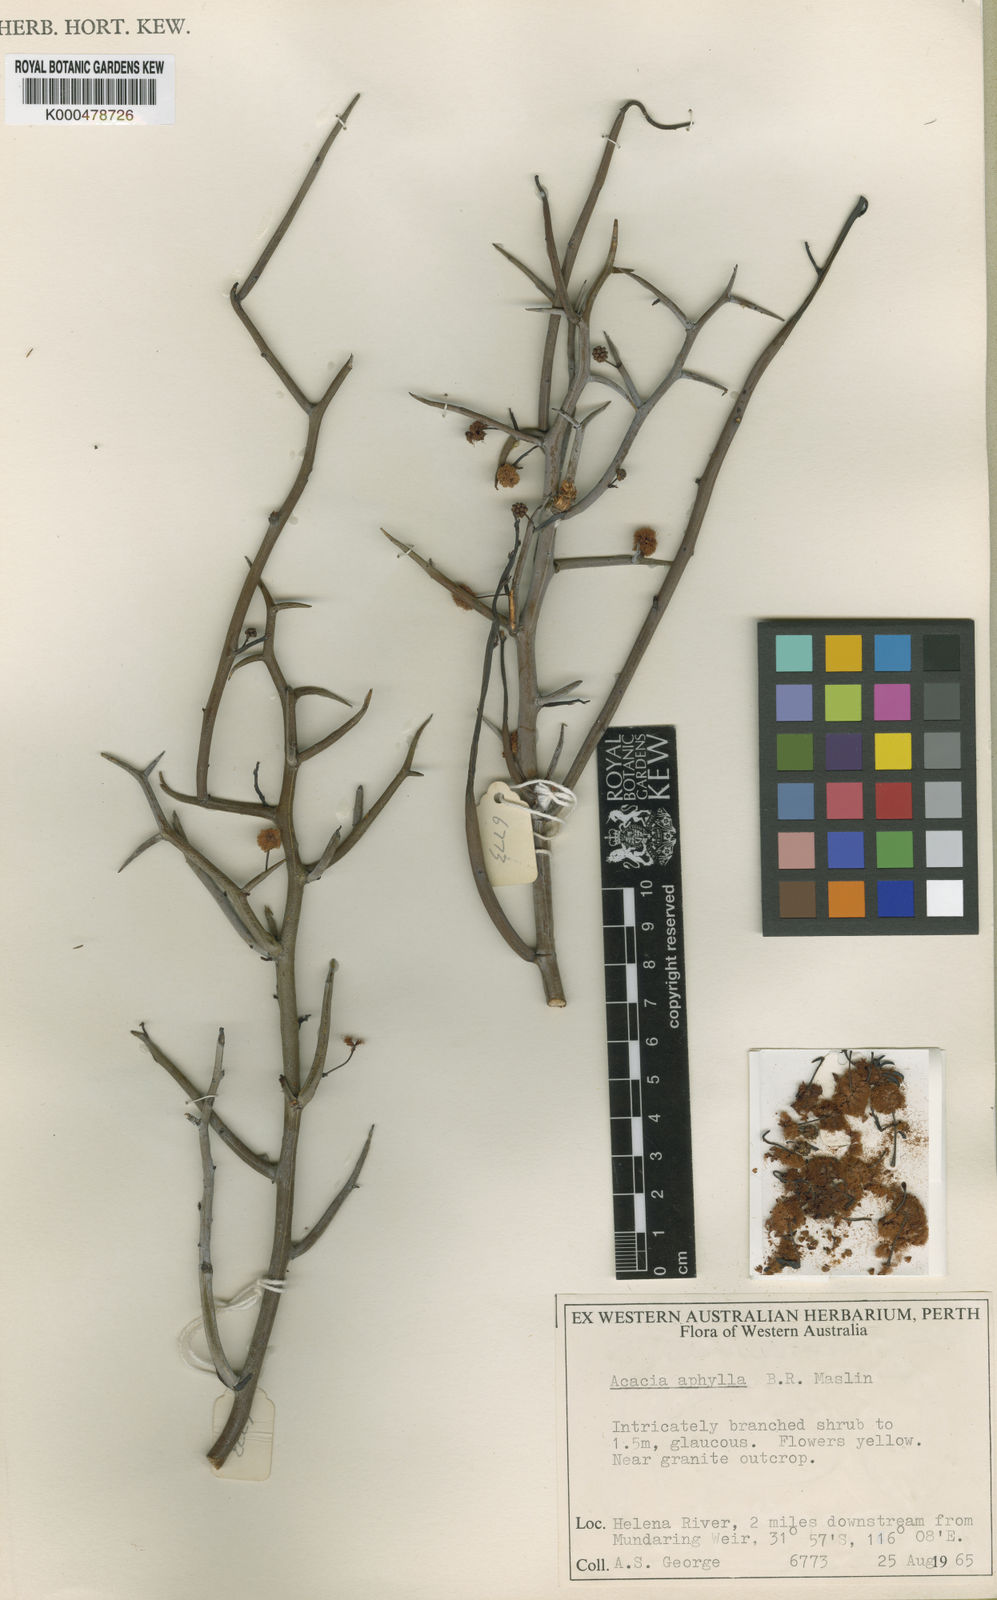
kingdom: Plantae
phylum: Tracheophyta
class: Magnoliopsida
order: Fabales
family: Fabaceae
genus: Acacia
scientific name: Acacia aphylla
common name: Leafless rock wattle
